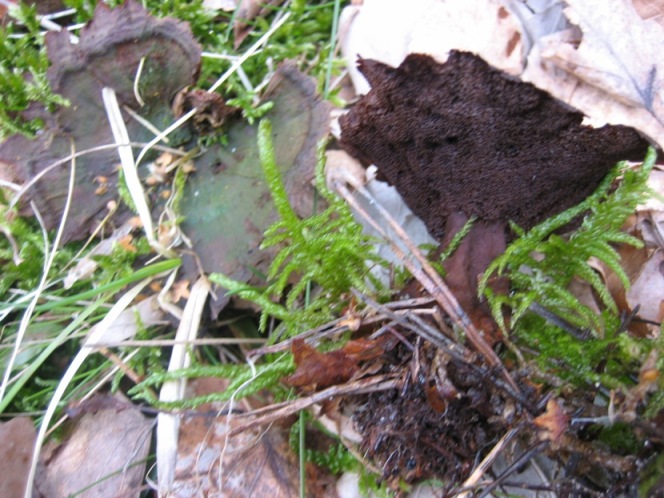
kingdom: Fungi
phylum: Basidiomycota
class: Agaricomycetes
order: Hymenochaetales
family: Hymenochaetaceae
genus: Coltricia
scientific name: Coltricia perennis
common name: almindelig sandporesvamp
